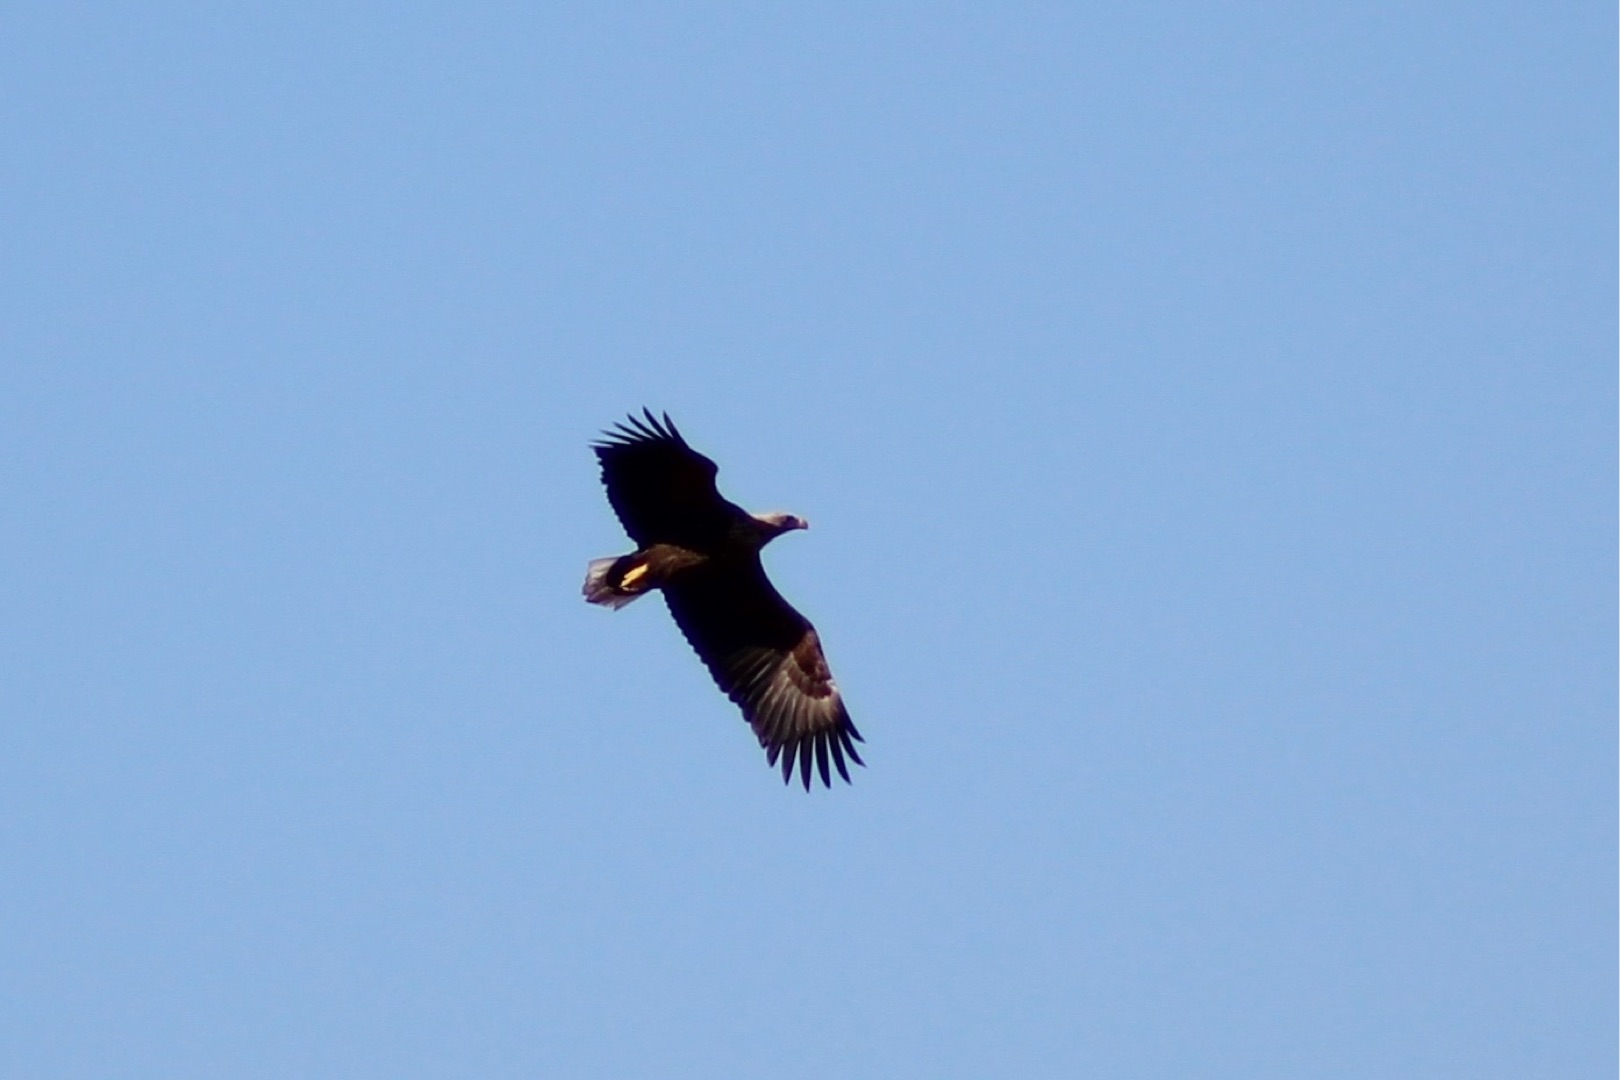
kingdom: Animalia
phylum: Chordata
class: Aves
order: Accipitriformes
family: Accipitridae
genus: Haliaeetus
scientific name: Haliaeetus albicilla
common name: Havørn
